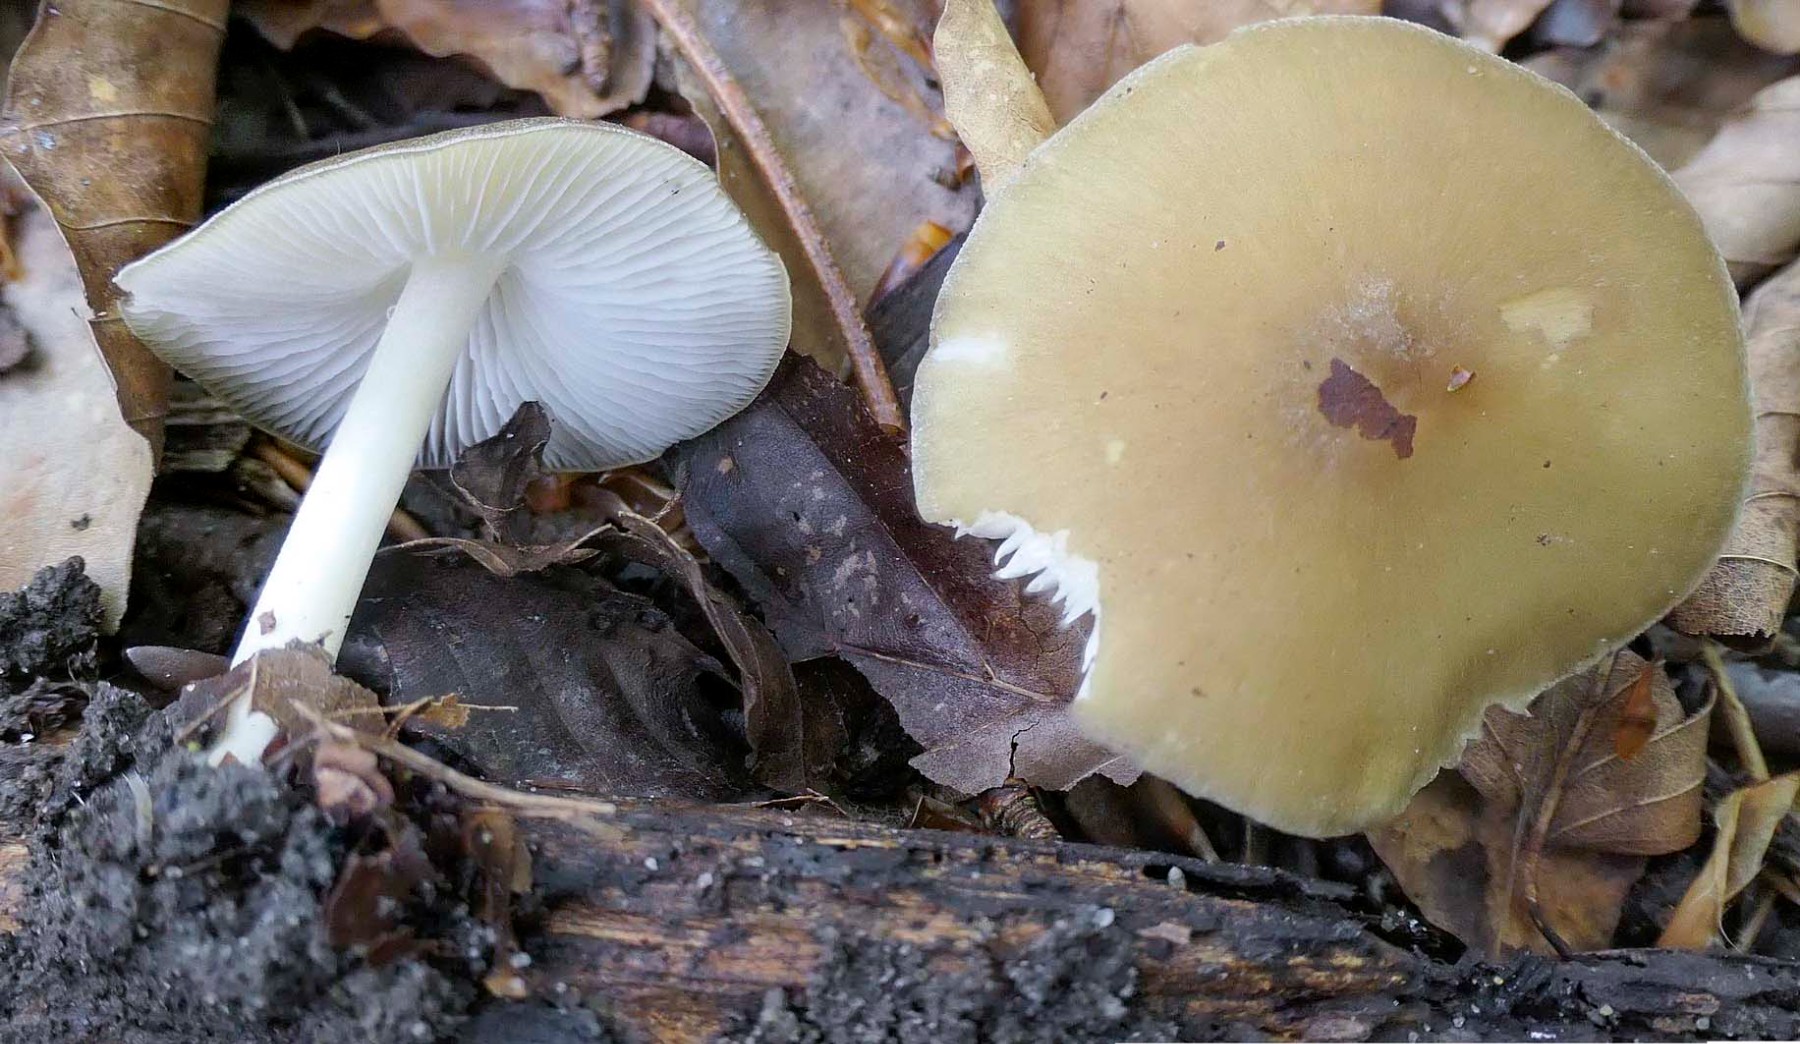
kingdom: Fungi
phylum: Basidiomycota
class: Agaricomycetes
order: Agaricales
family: Porotheleaceae
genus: Hydropodia
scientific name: Hydropodia subalpina
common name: vår-fnugfod
